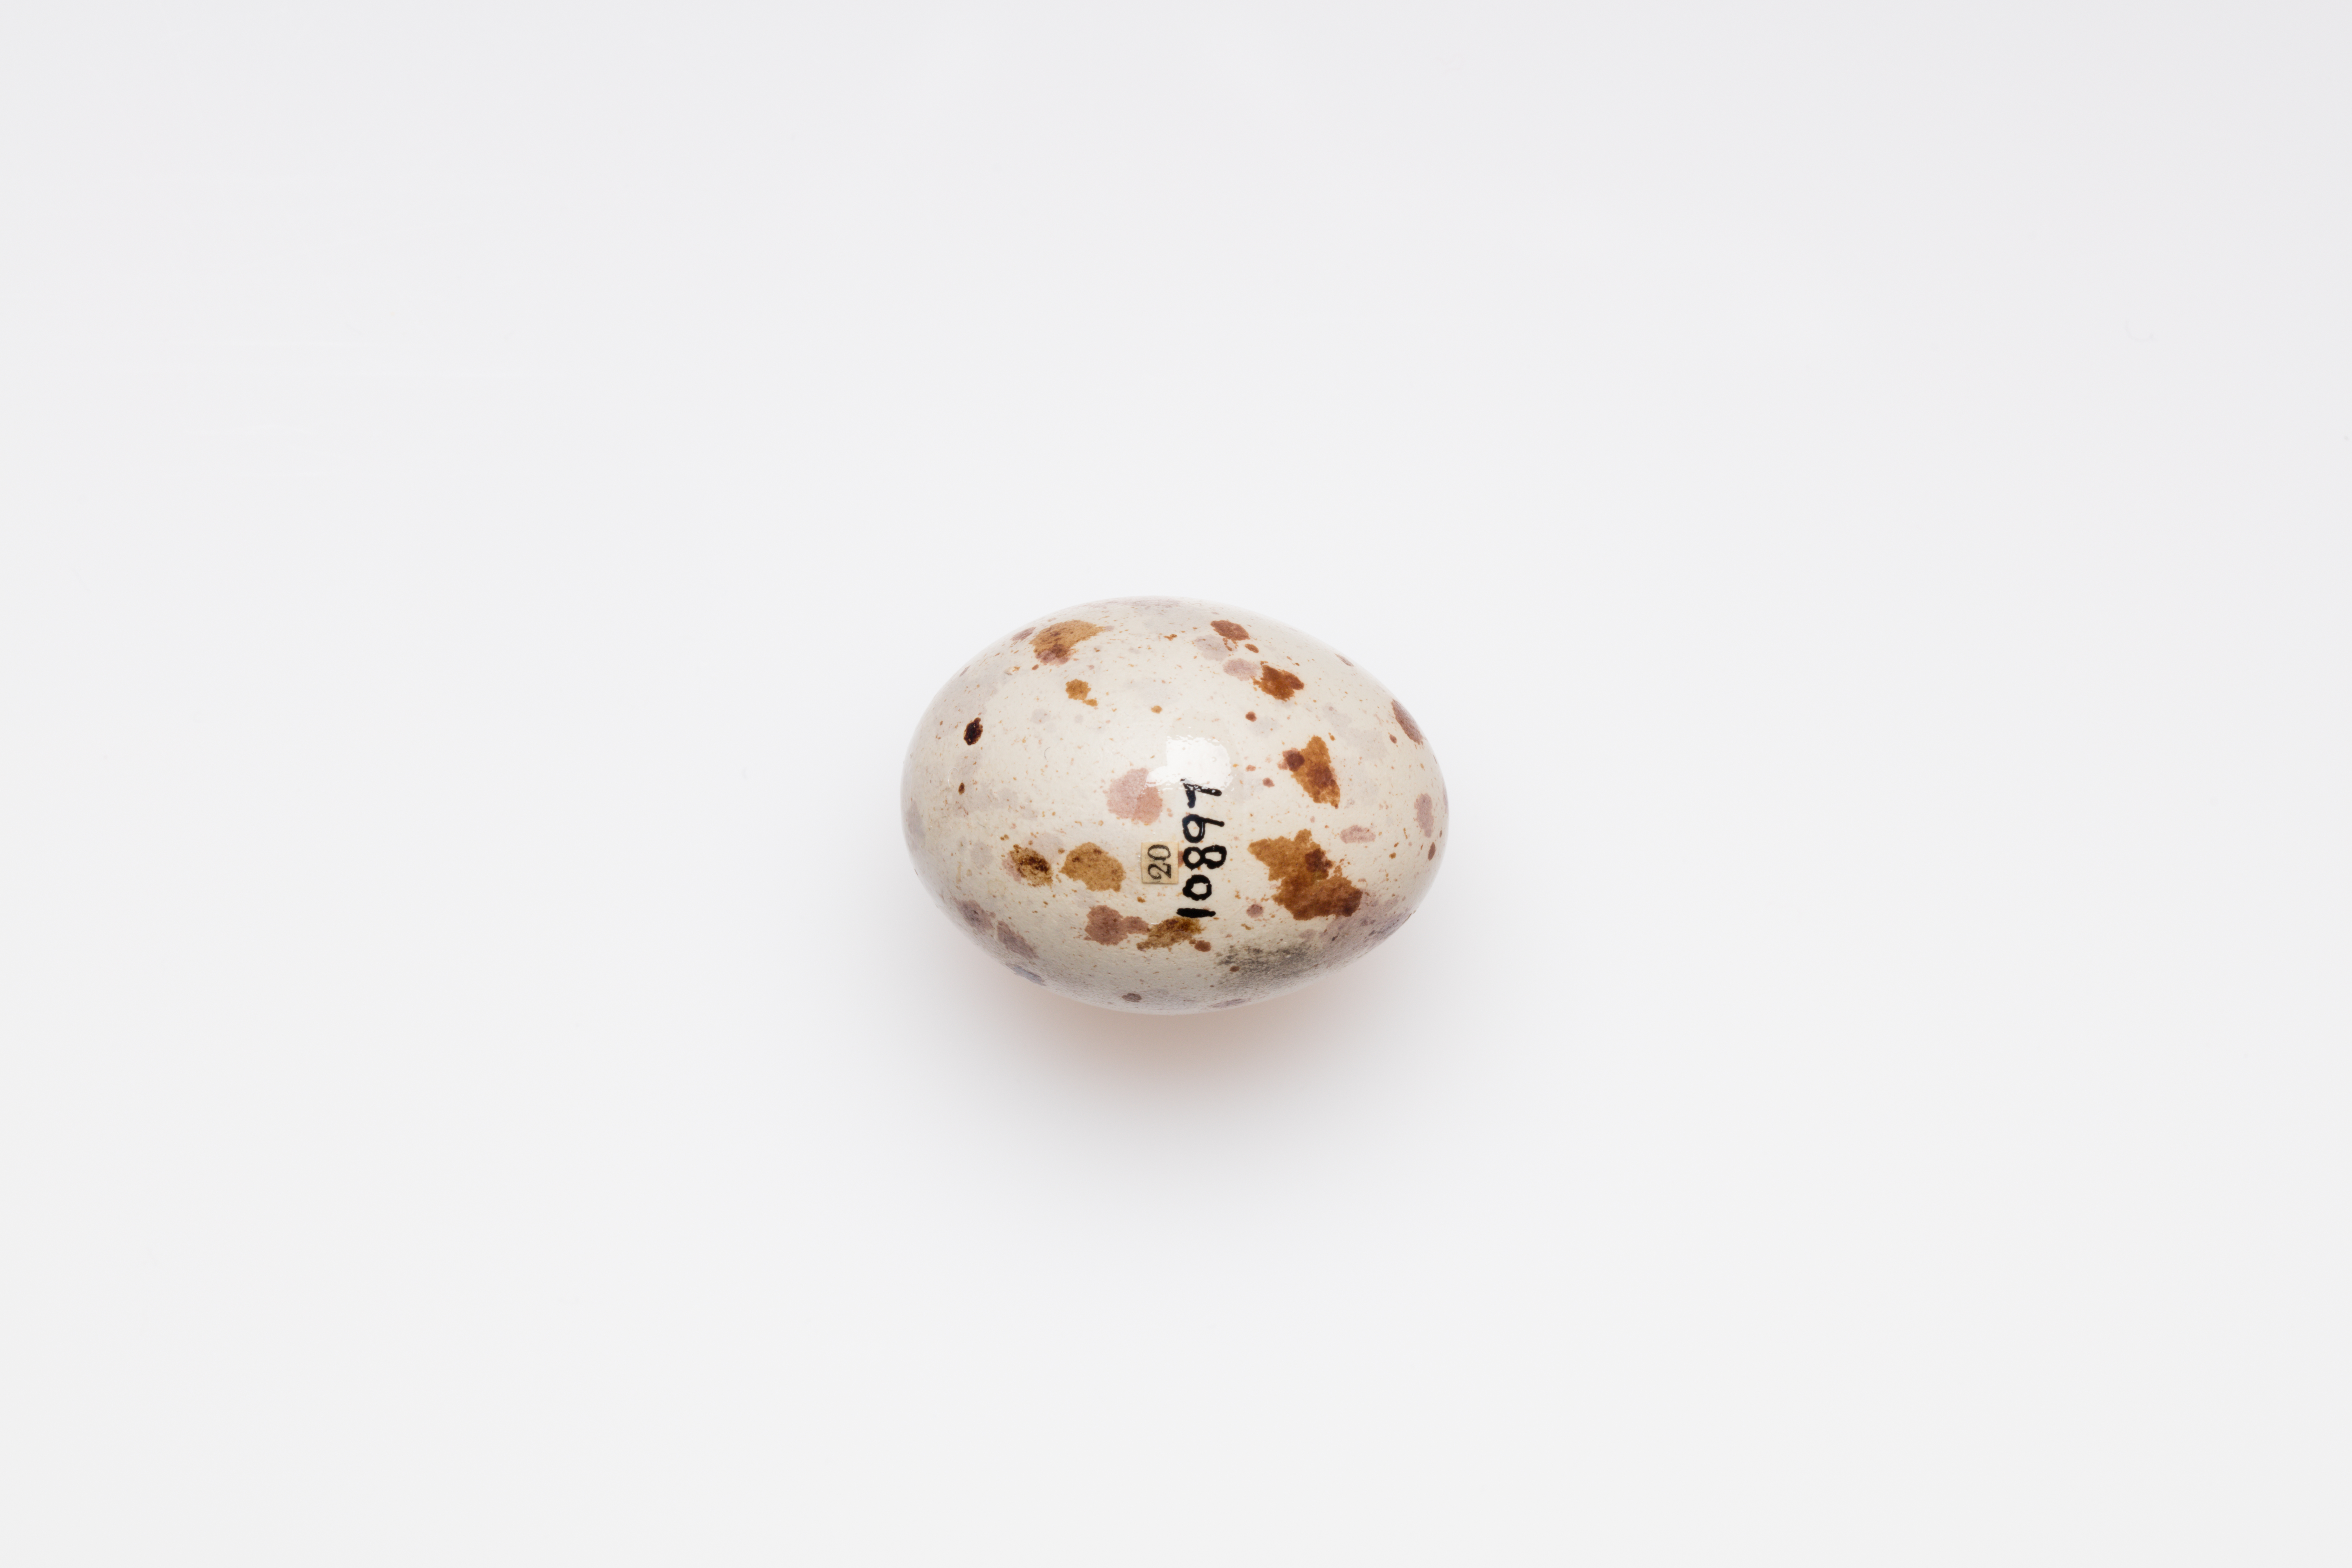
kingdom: Animalia
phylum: Chordata
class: Aves
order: Passeriformes
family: Turdidae
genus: Turdus
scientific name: Turdus viscivorus
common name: Mistle thrush
